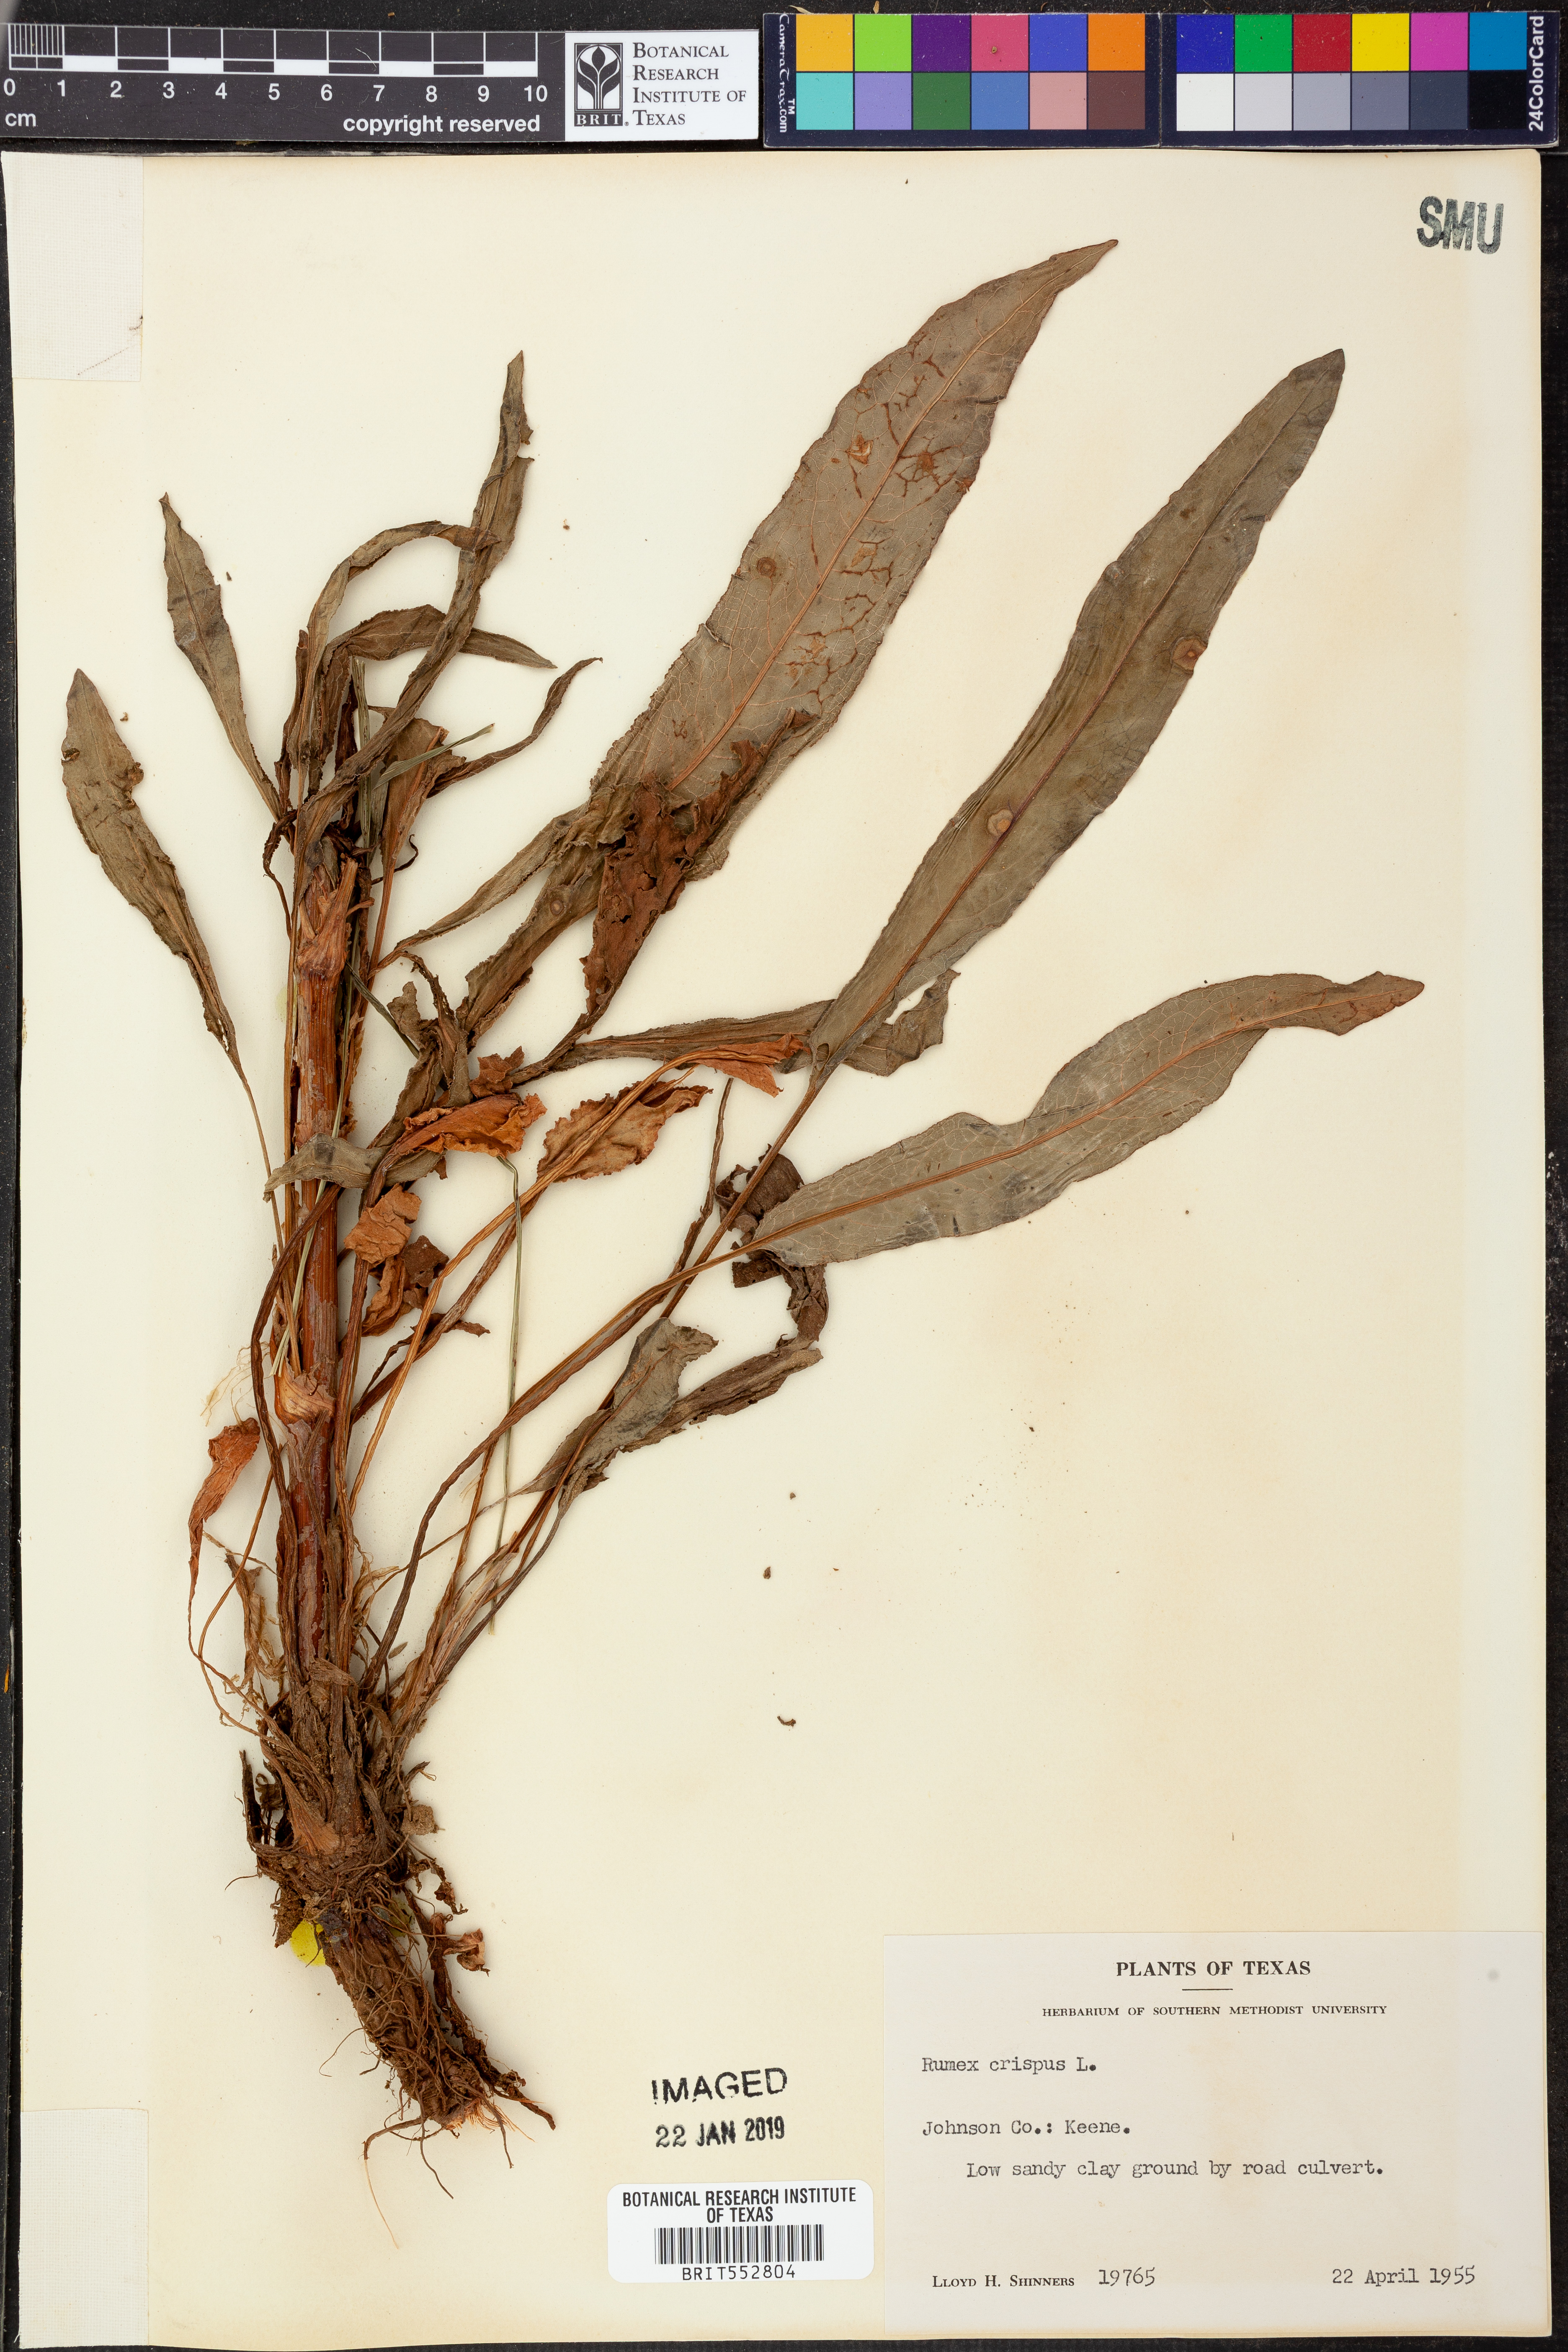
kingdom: Plantae
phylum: Tracheophyta
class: Magnoliopsida
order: Caryophyllales
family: Polygonaceae
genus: Rumex
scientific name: Rumex crispus
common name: Curled dock
